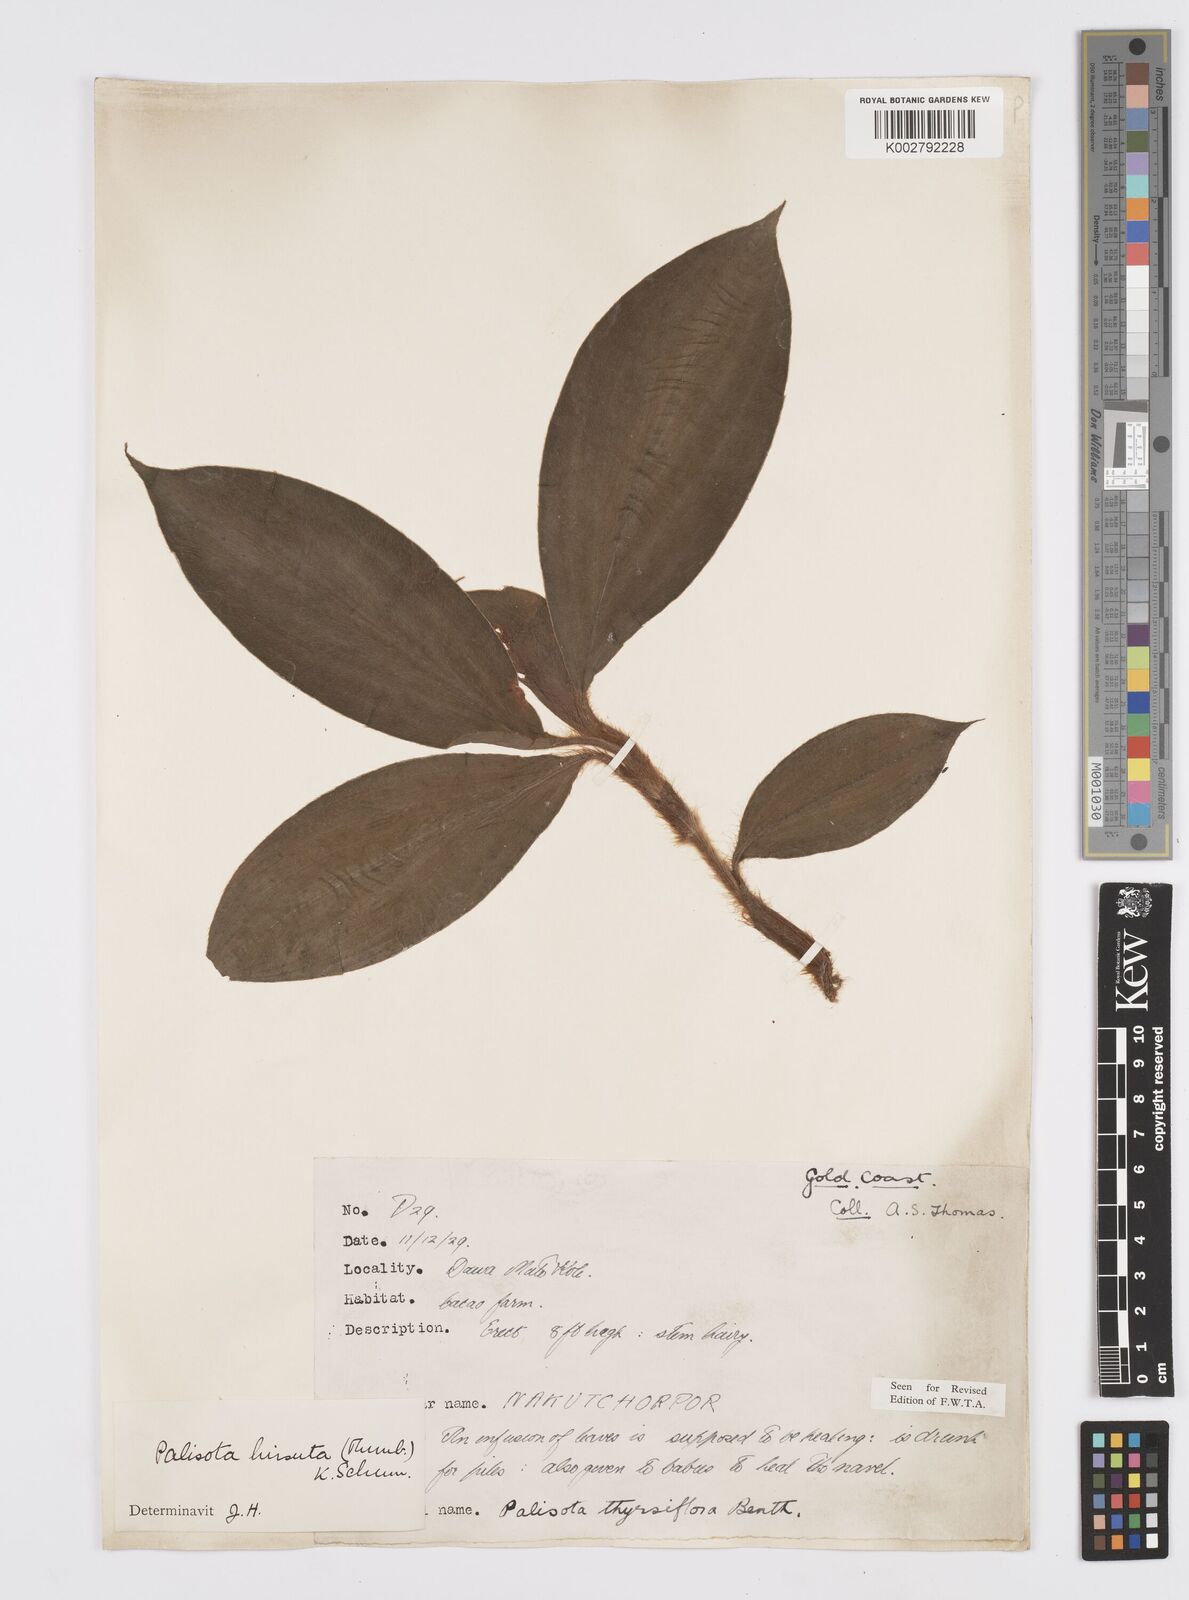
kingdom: Plantae
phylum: Tracheophyta
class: Liliopsida
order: Commelinales
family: Commelinaceae
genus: Palisota
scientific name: Palisota hirsuta
